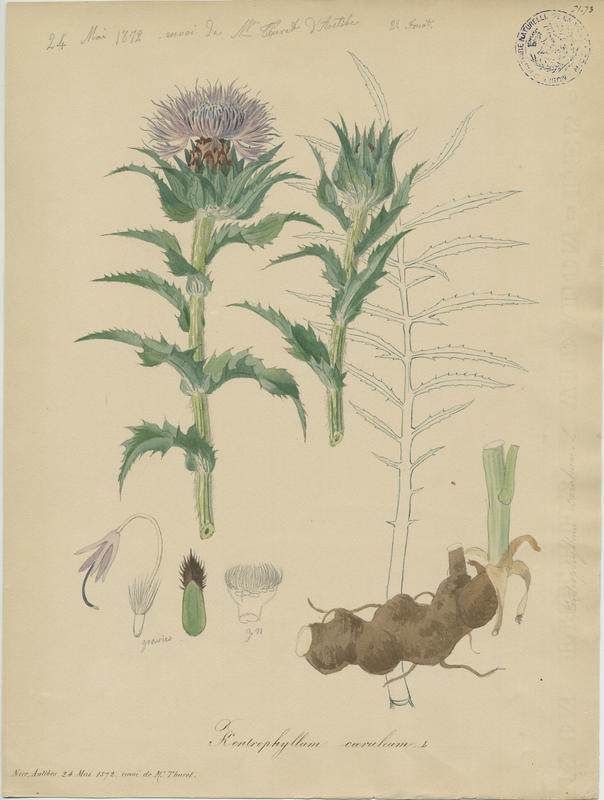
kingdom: Plantae
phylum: Tracheophyta
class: Magnoliopsida
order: Asterales
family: Asteraceae
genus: Carduncellus
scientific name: Carduncellus caeruleus
